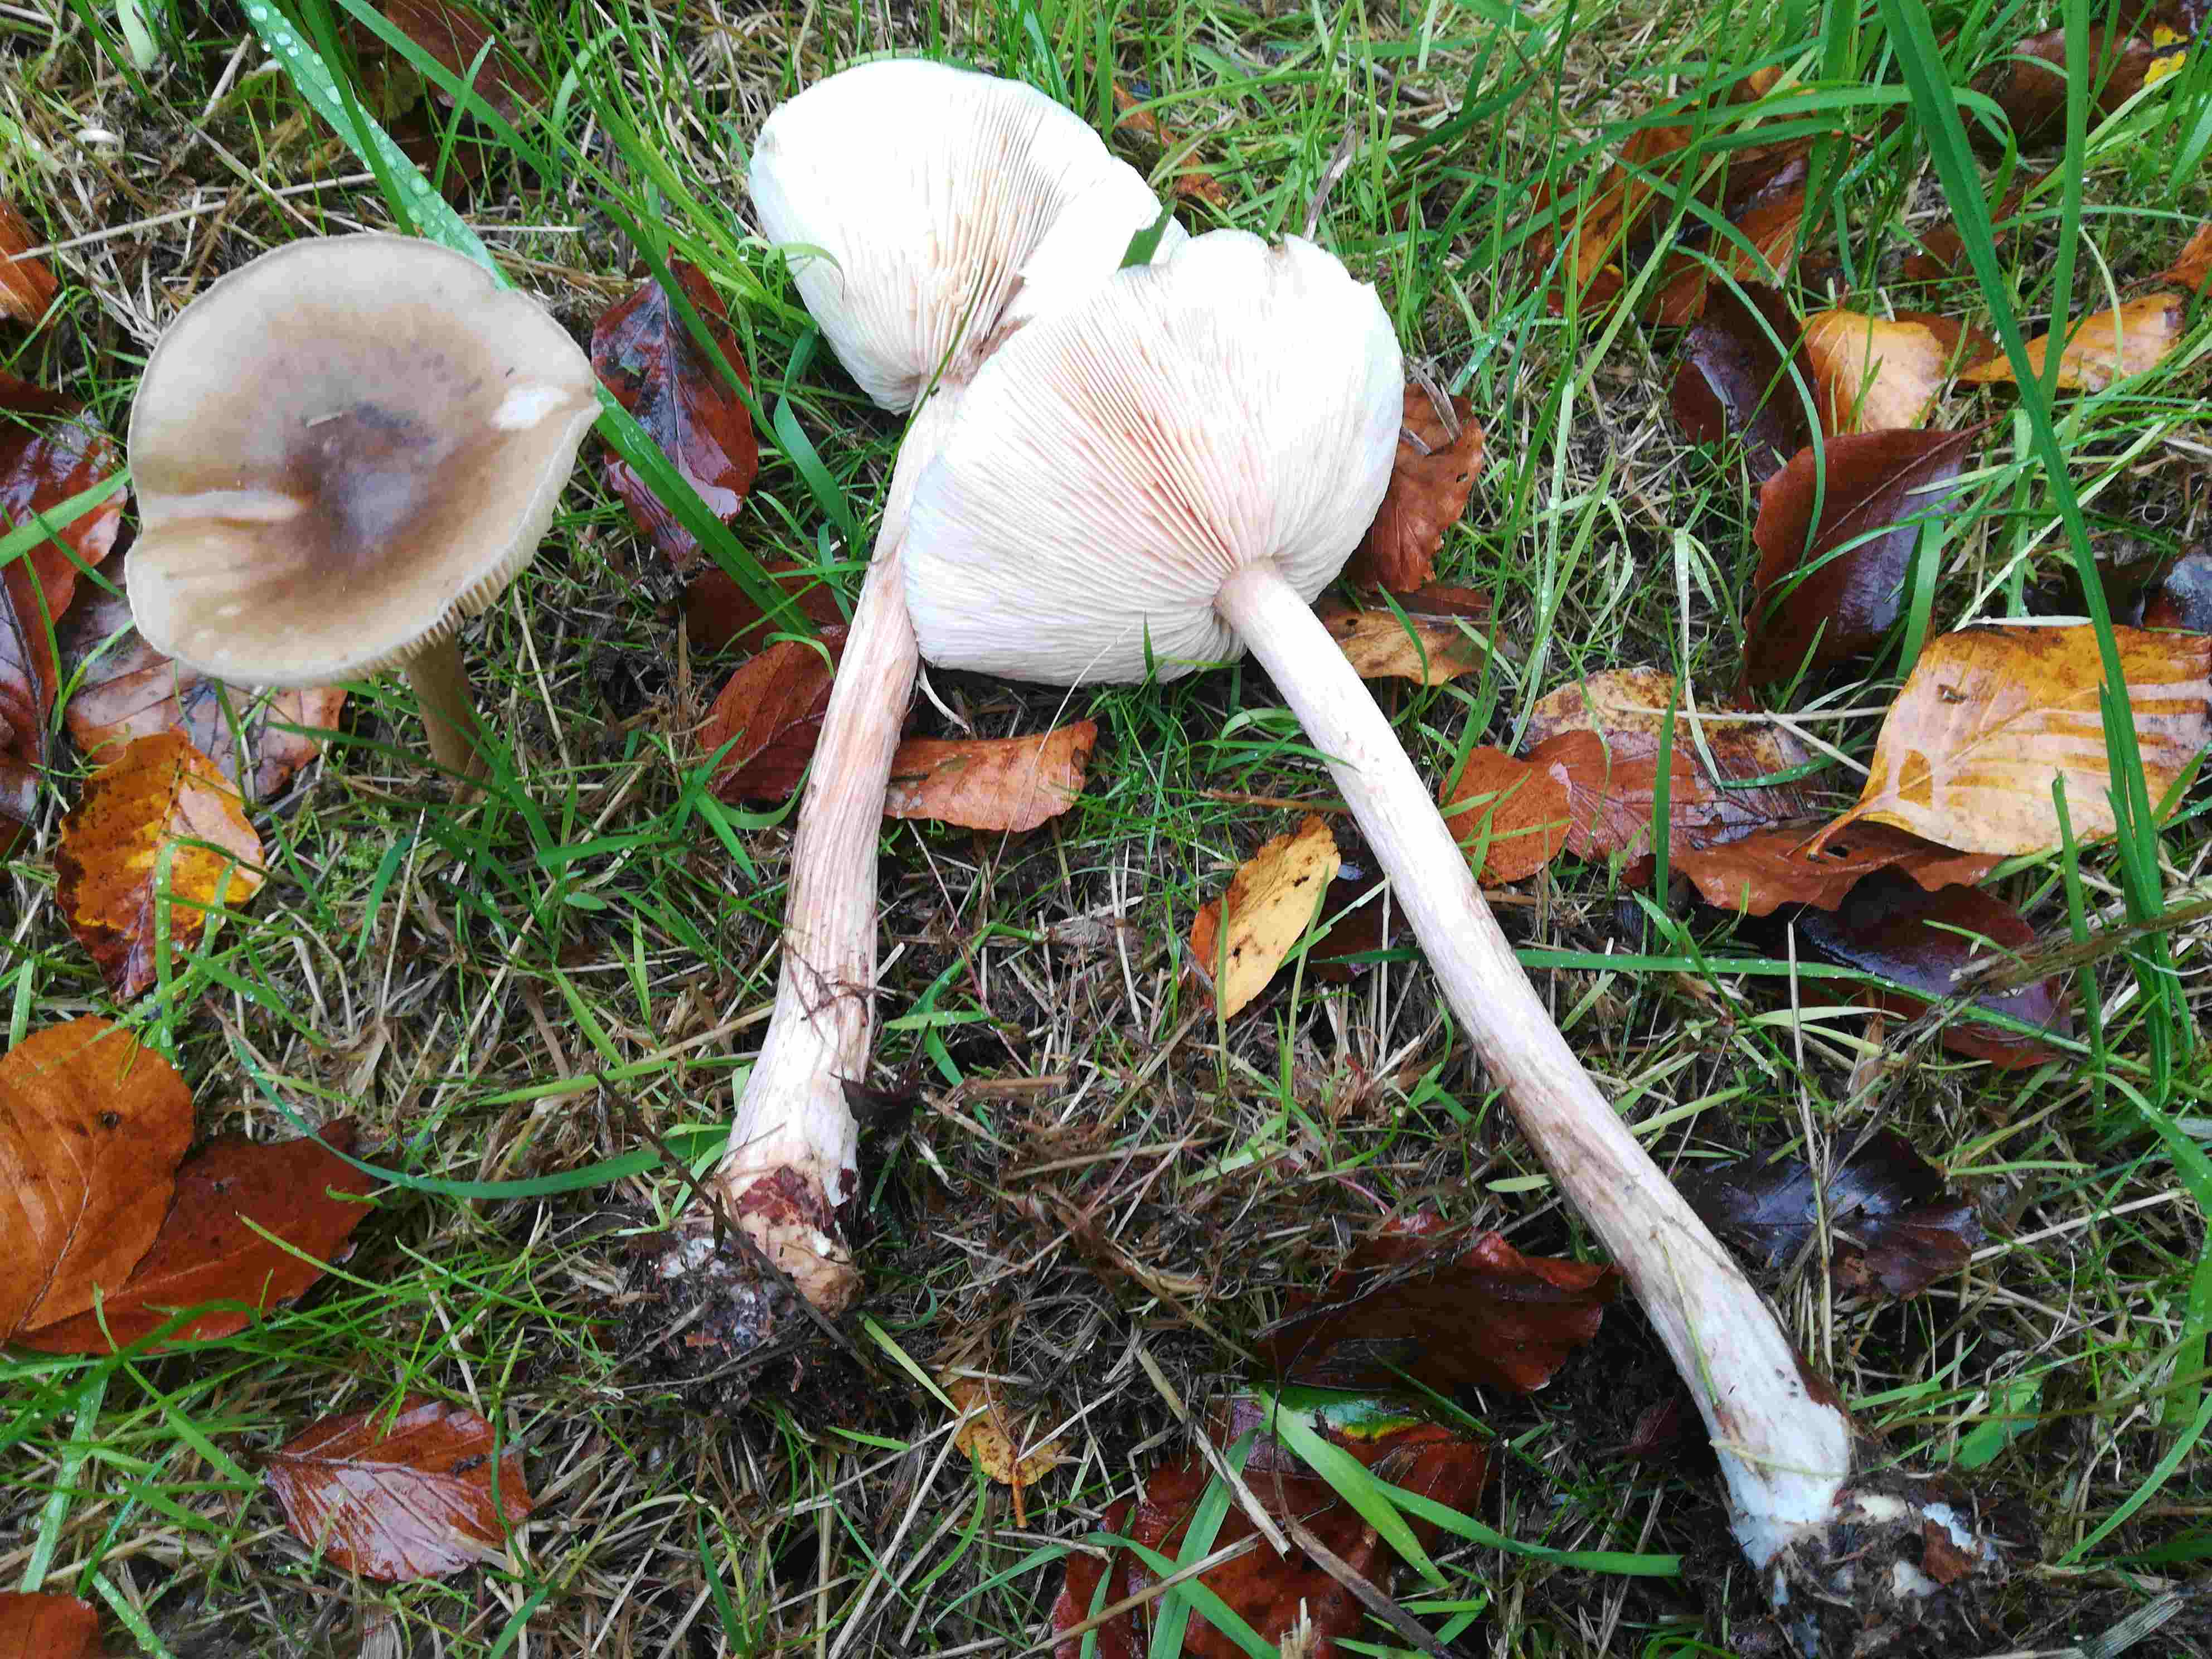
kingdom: Fungi
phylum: Basidiomycota
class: Agaricomycetes
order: Agaricales
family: Tricholomataceae
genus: Melanoleuca
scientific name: Melanoleuca
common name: munkehat
